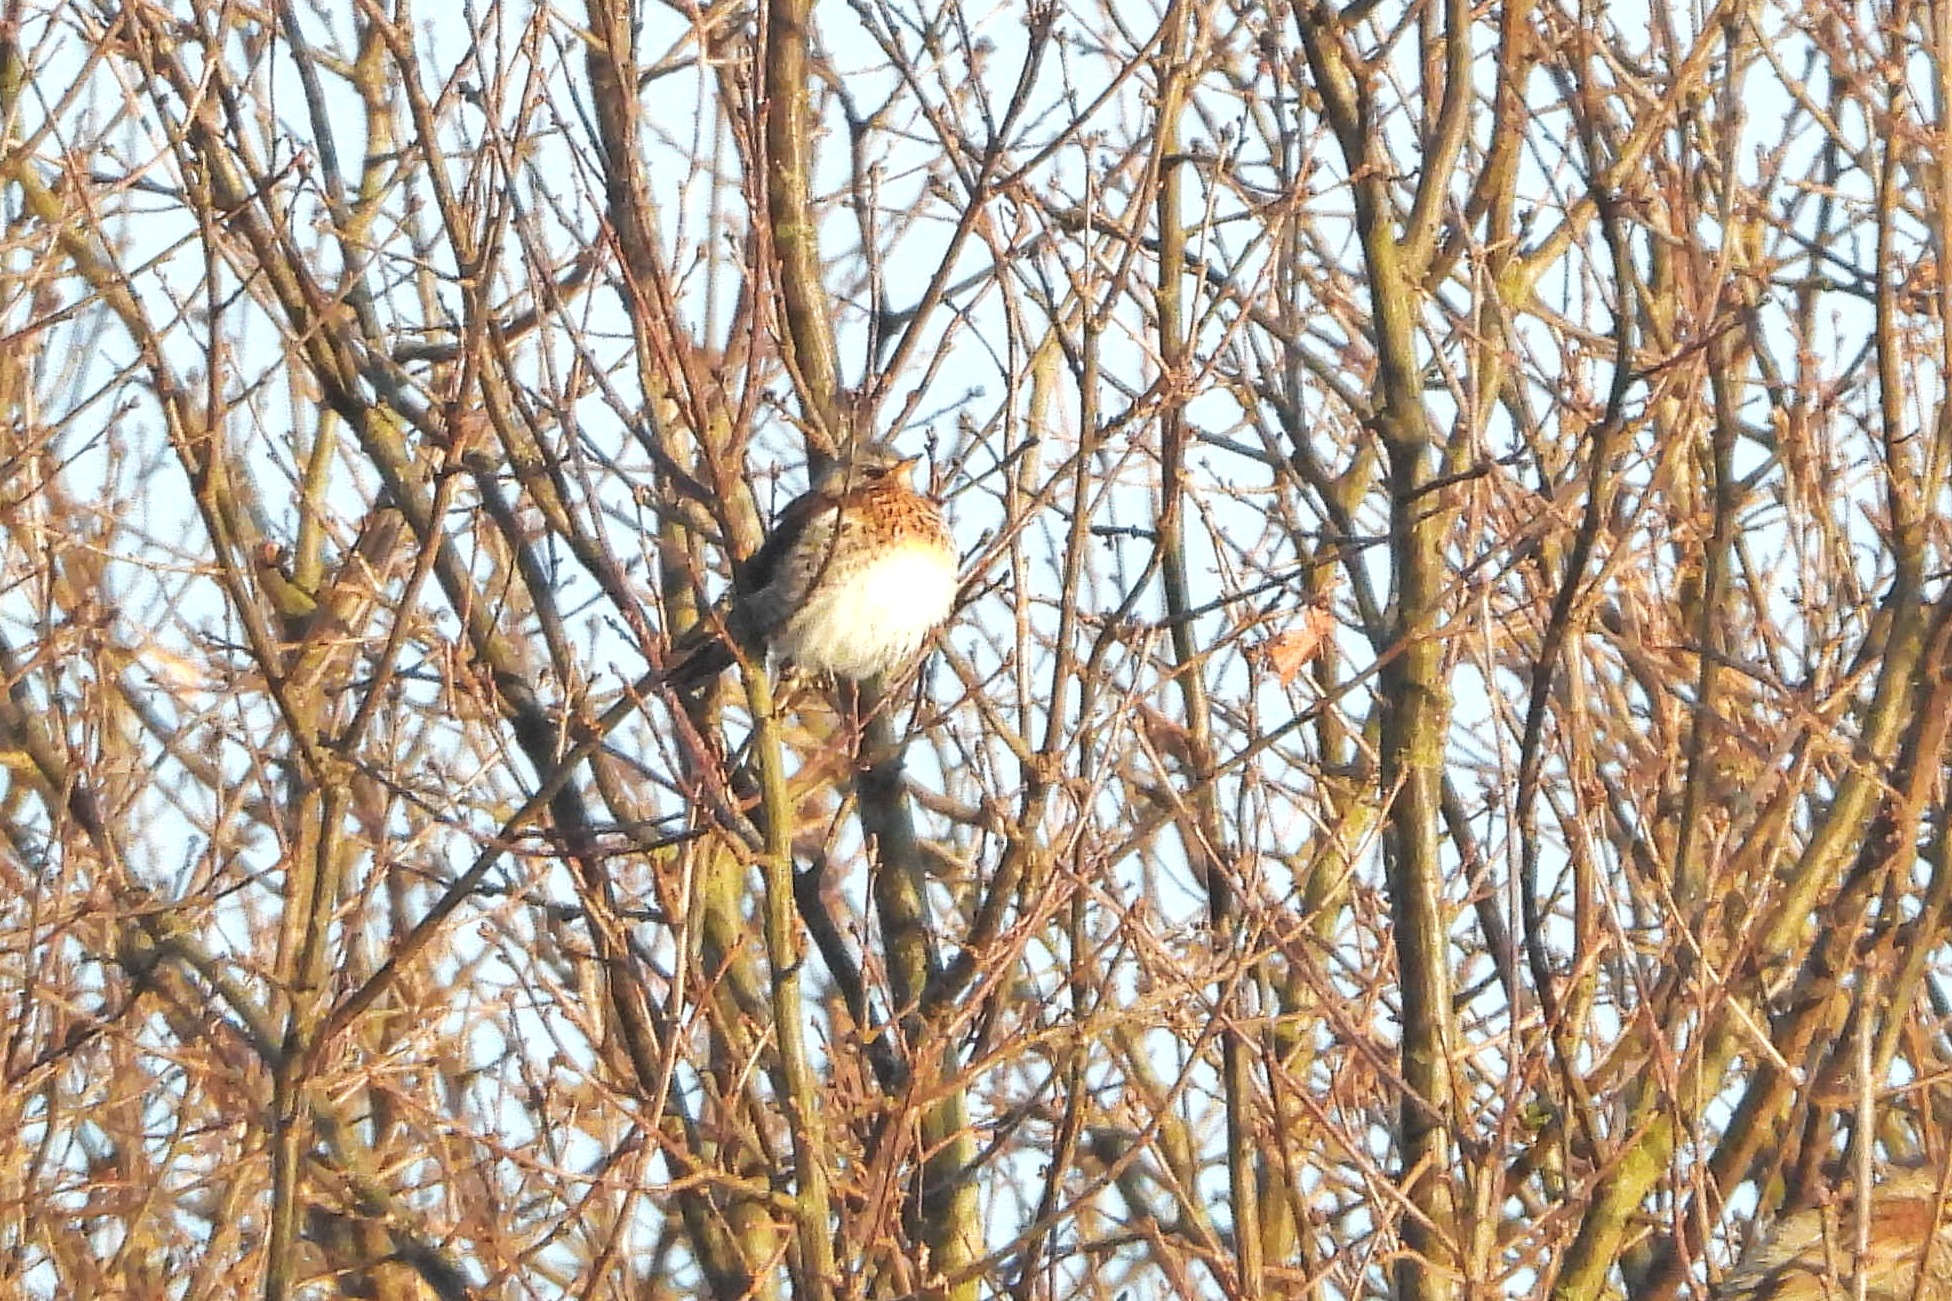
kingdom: Animalia
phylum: Chordata
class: Aves
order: Passeriformes
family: Turdidae
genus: Turdus
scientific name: Turdus pilaris
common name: Sjagger
